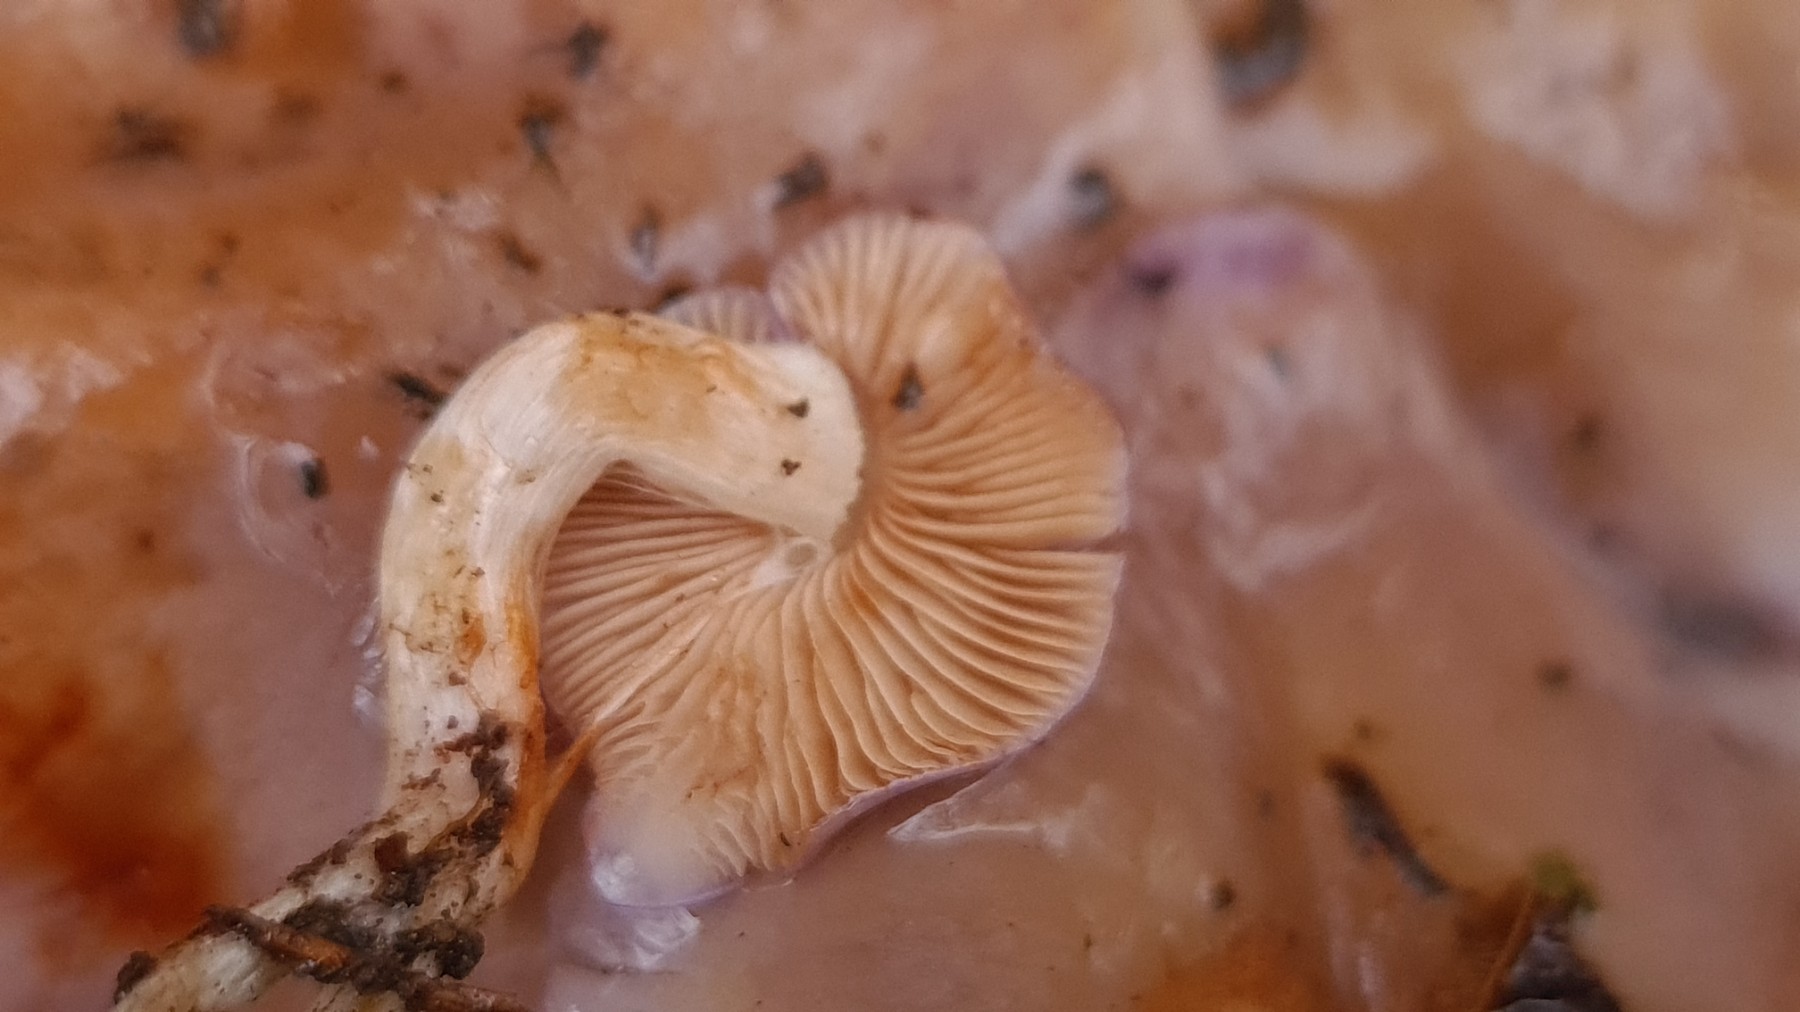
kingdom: Fungi
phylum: Basidiomycota
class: Agaricomycetes
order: Agaricales
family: Cortinariaceae
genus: Thaxterogaster
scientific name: Thaxterogaster croceocoeruleus
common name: blågullig slørhat
